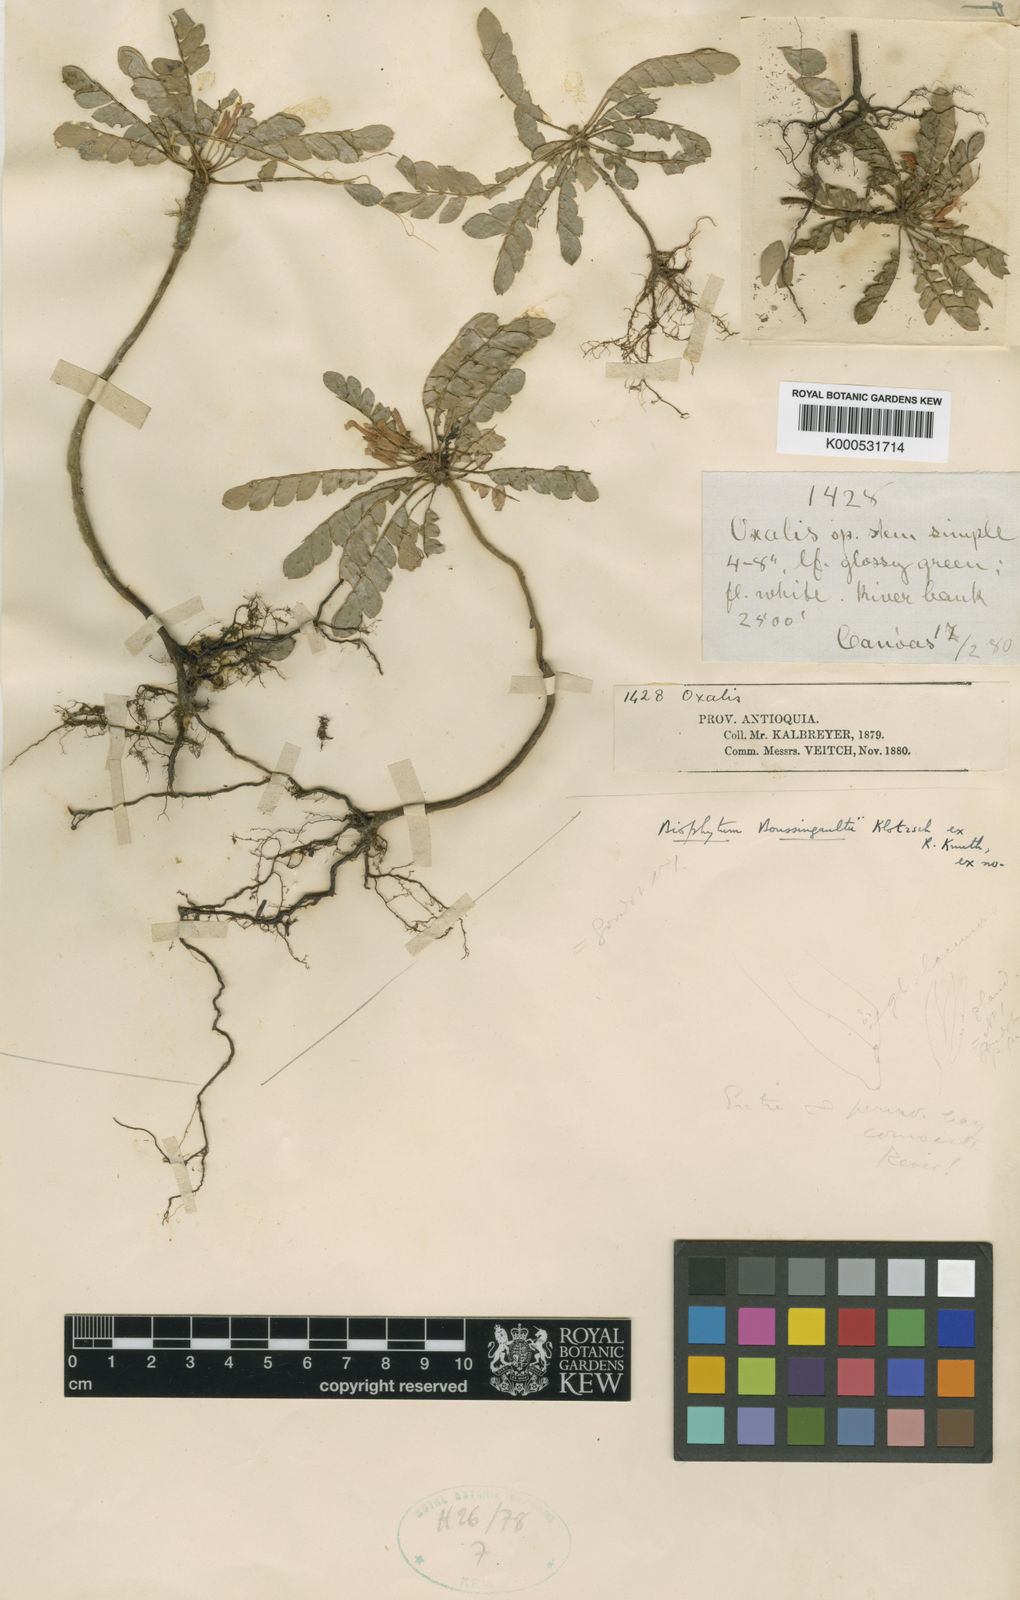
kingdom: Plantae
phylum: Tracheophyta
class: Magnoliopsida
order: Oxalidales
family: Oxalidaceae
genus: Biophytum
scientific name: Biophytum boussingaultii
